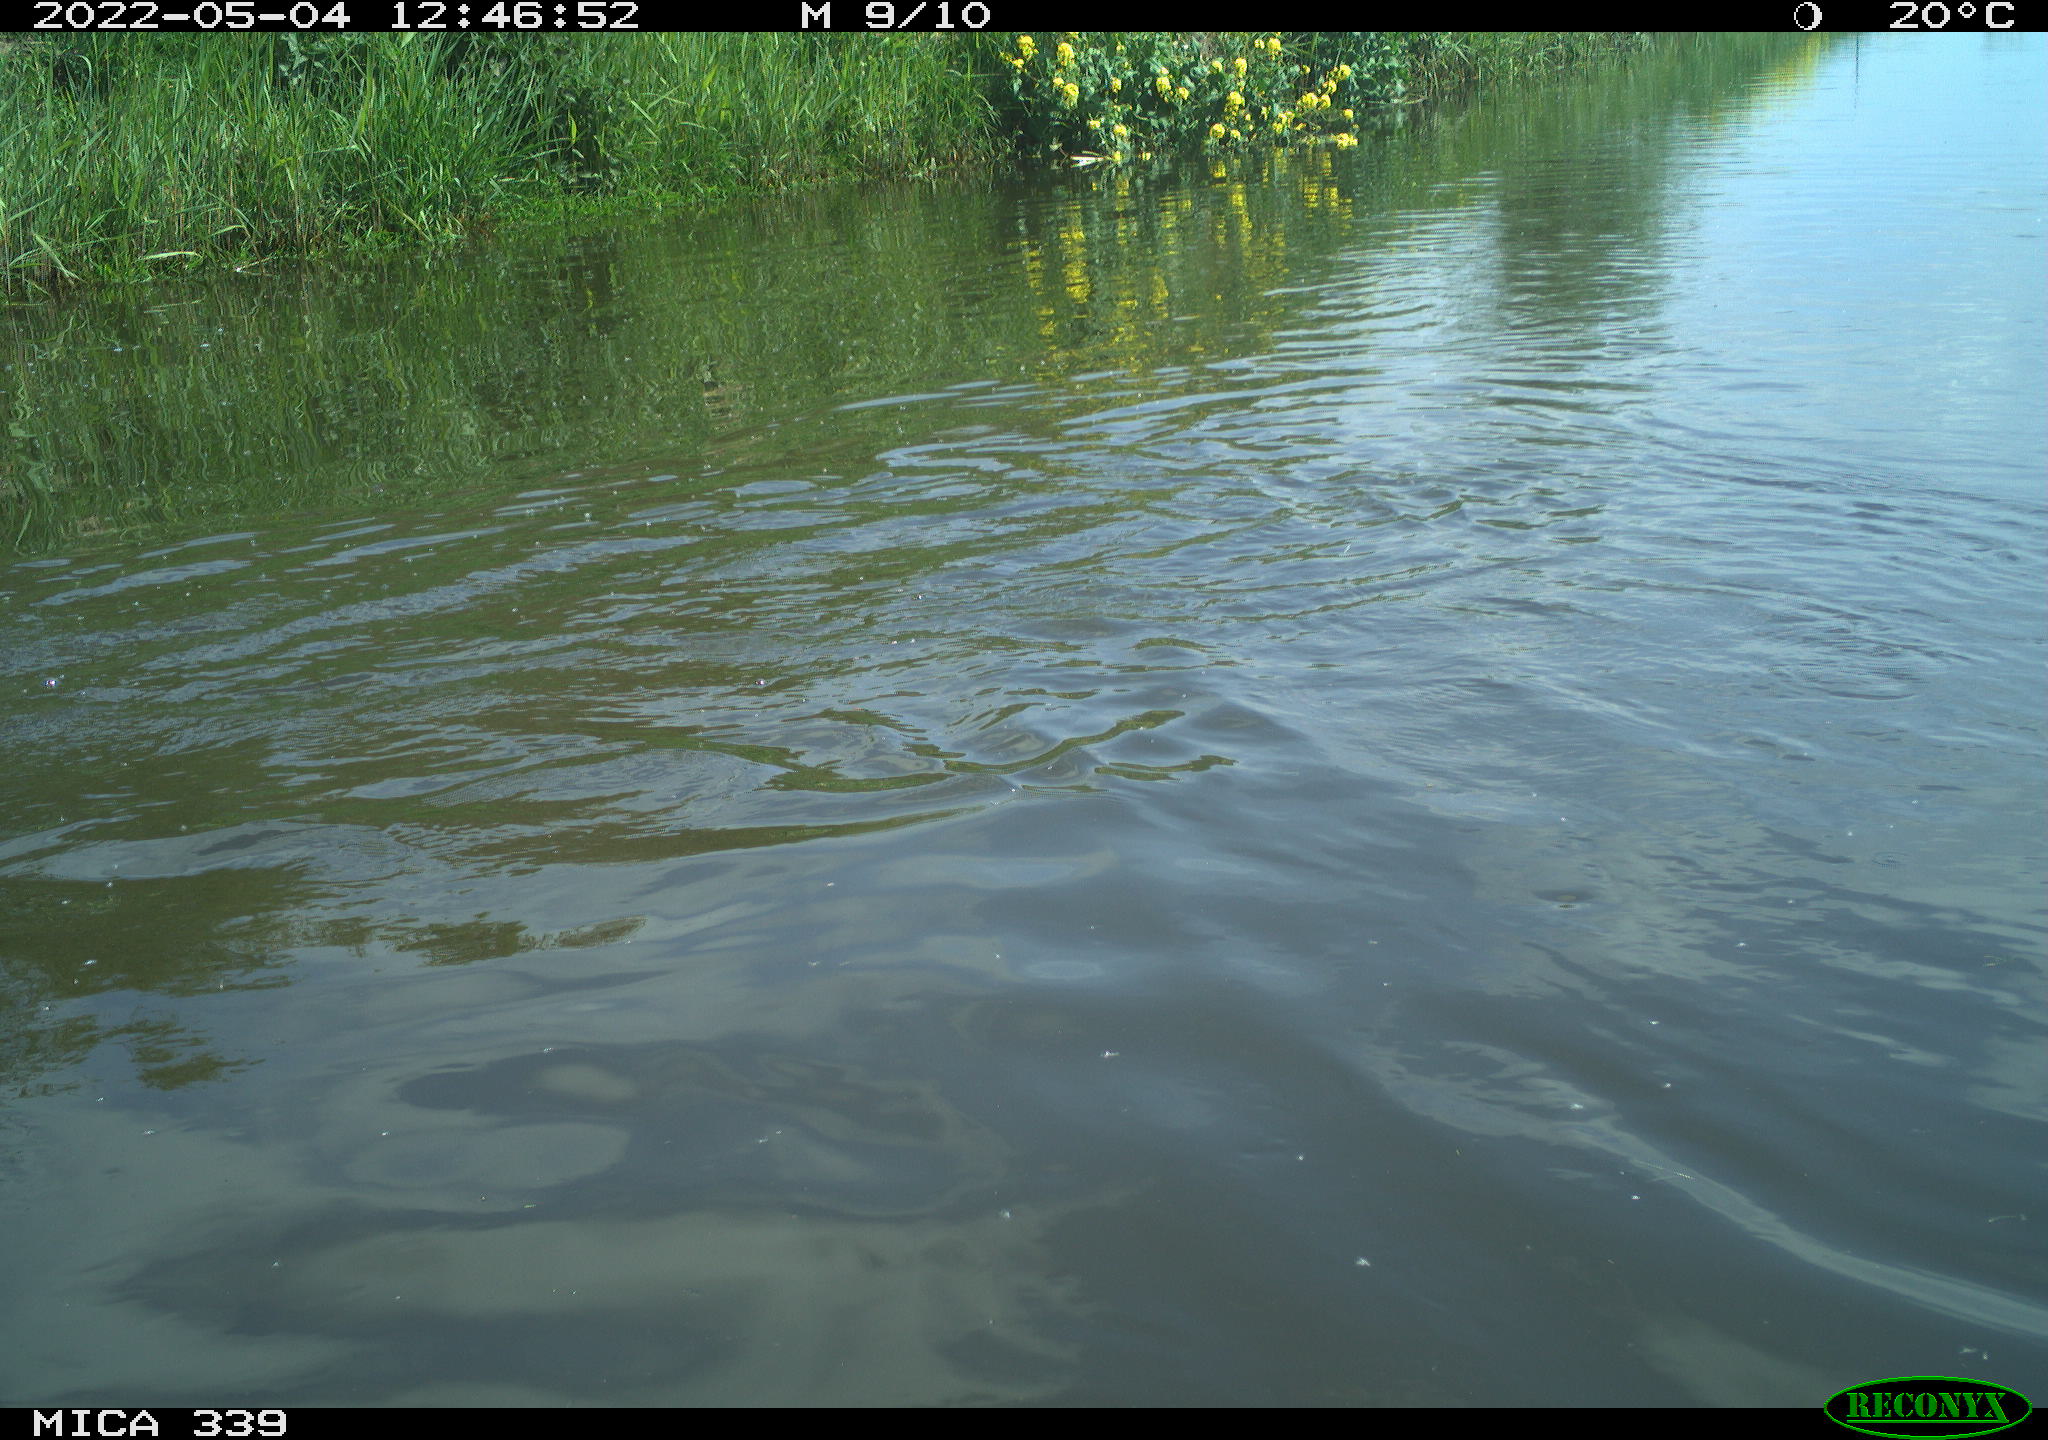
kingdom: Animalia
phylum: Chordata
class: Aves
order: Anseriformes
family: Anatidae
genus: Anas
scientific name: Anas platyrhynchos
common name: Mallard
